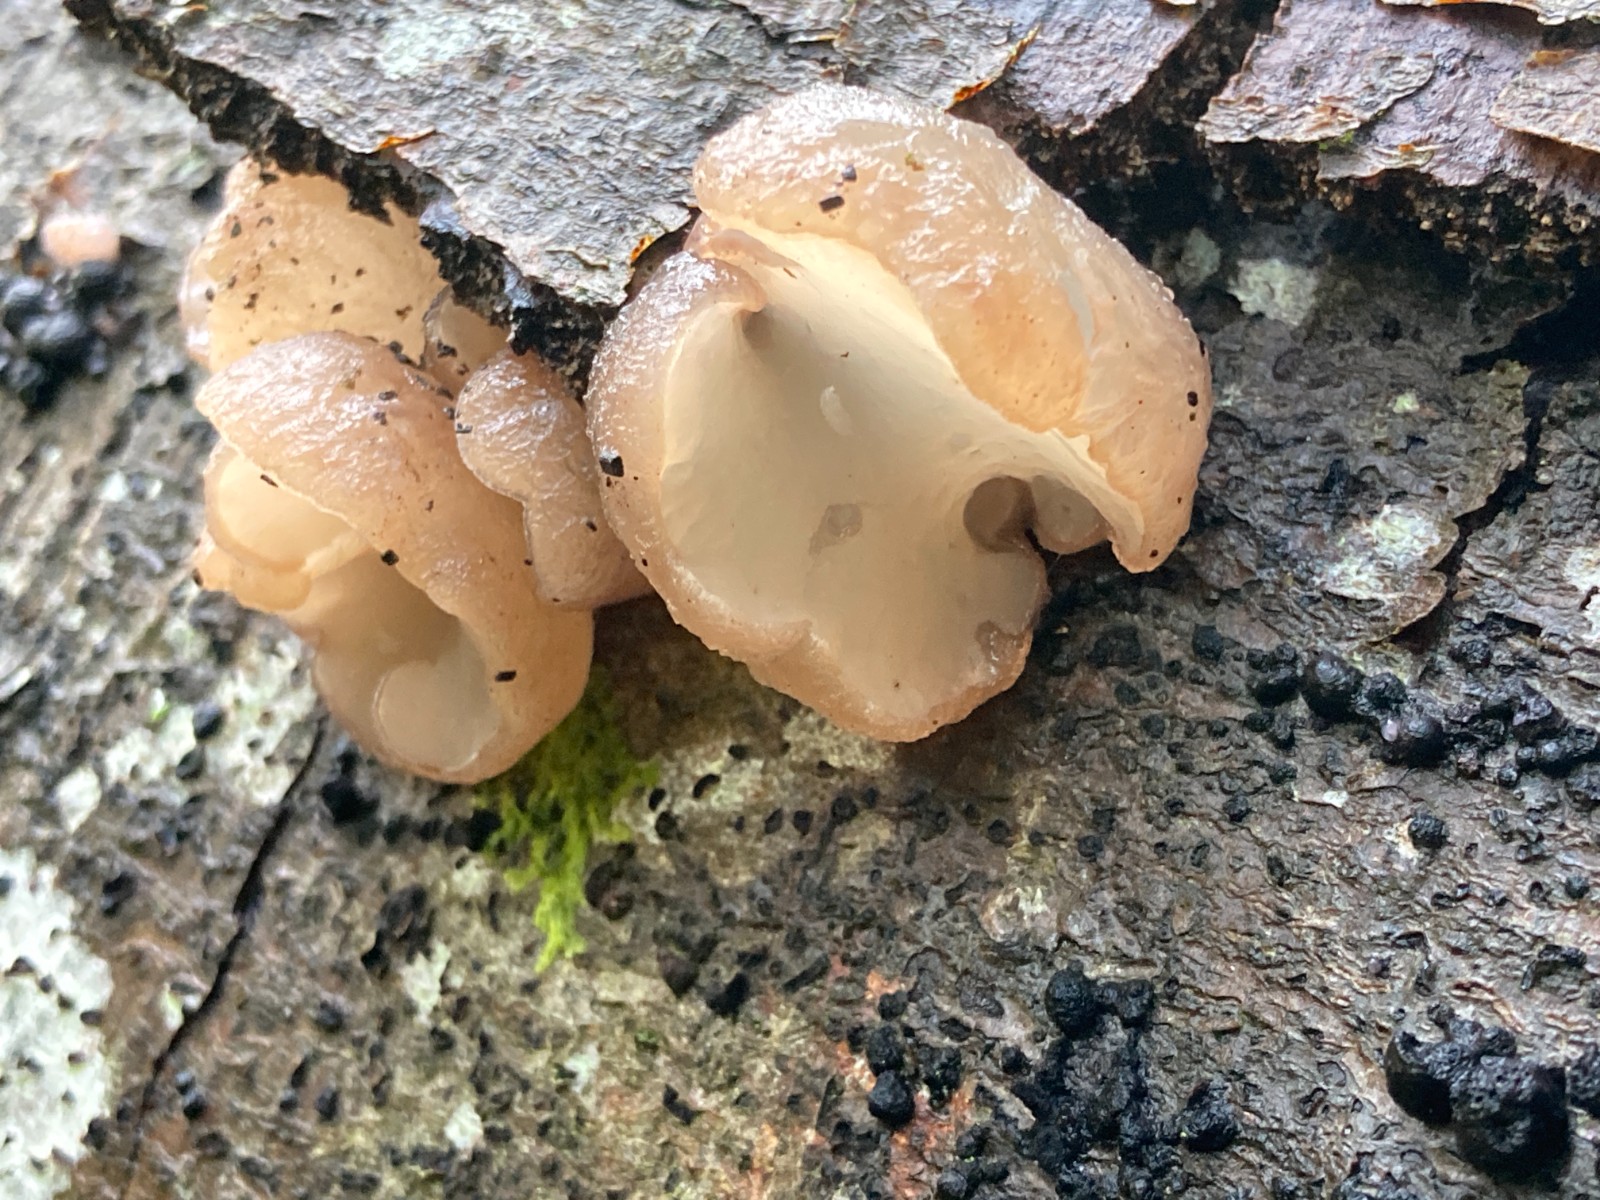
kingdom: Fungi
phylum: Ascomycota
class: Leotiomycetes
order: Helotiales
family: Gelatinodiscaceae
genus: Neobulgaria
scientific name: Neobulgaria pura
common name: bleg bævreskive
